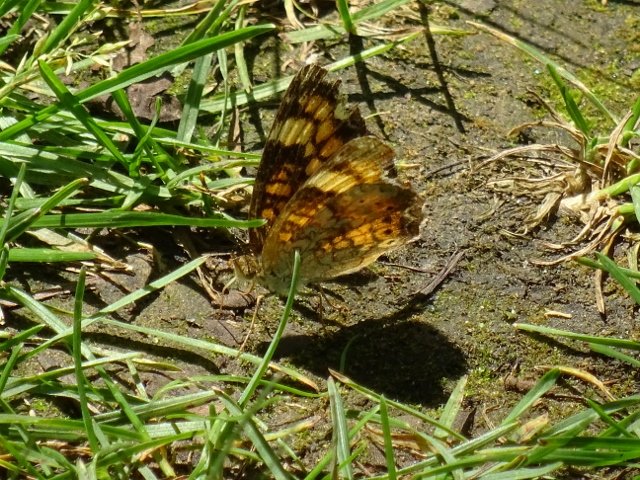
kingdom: Animalia
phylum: Arthropoda
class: Insecta
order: Lepidoptera
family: Nymphalidae
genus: Phyciodes
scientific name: Phyciodes tharos
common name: Northern Crescent
